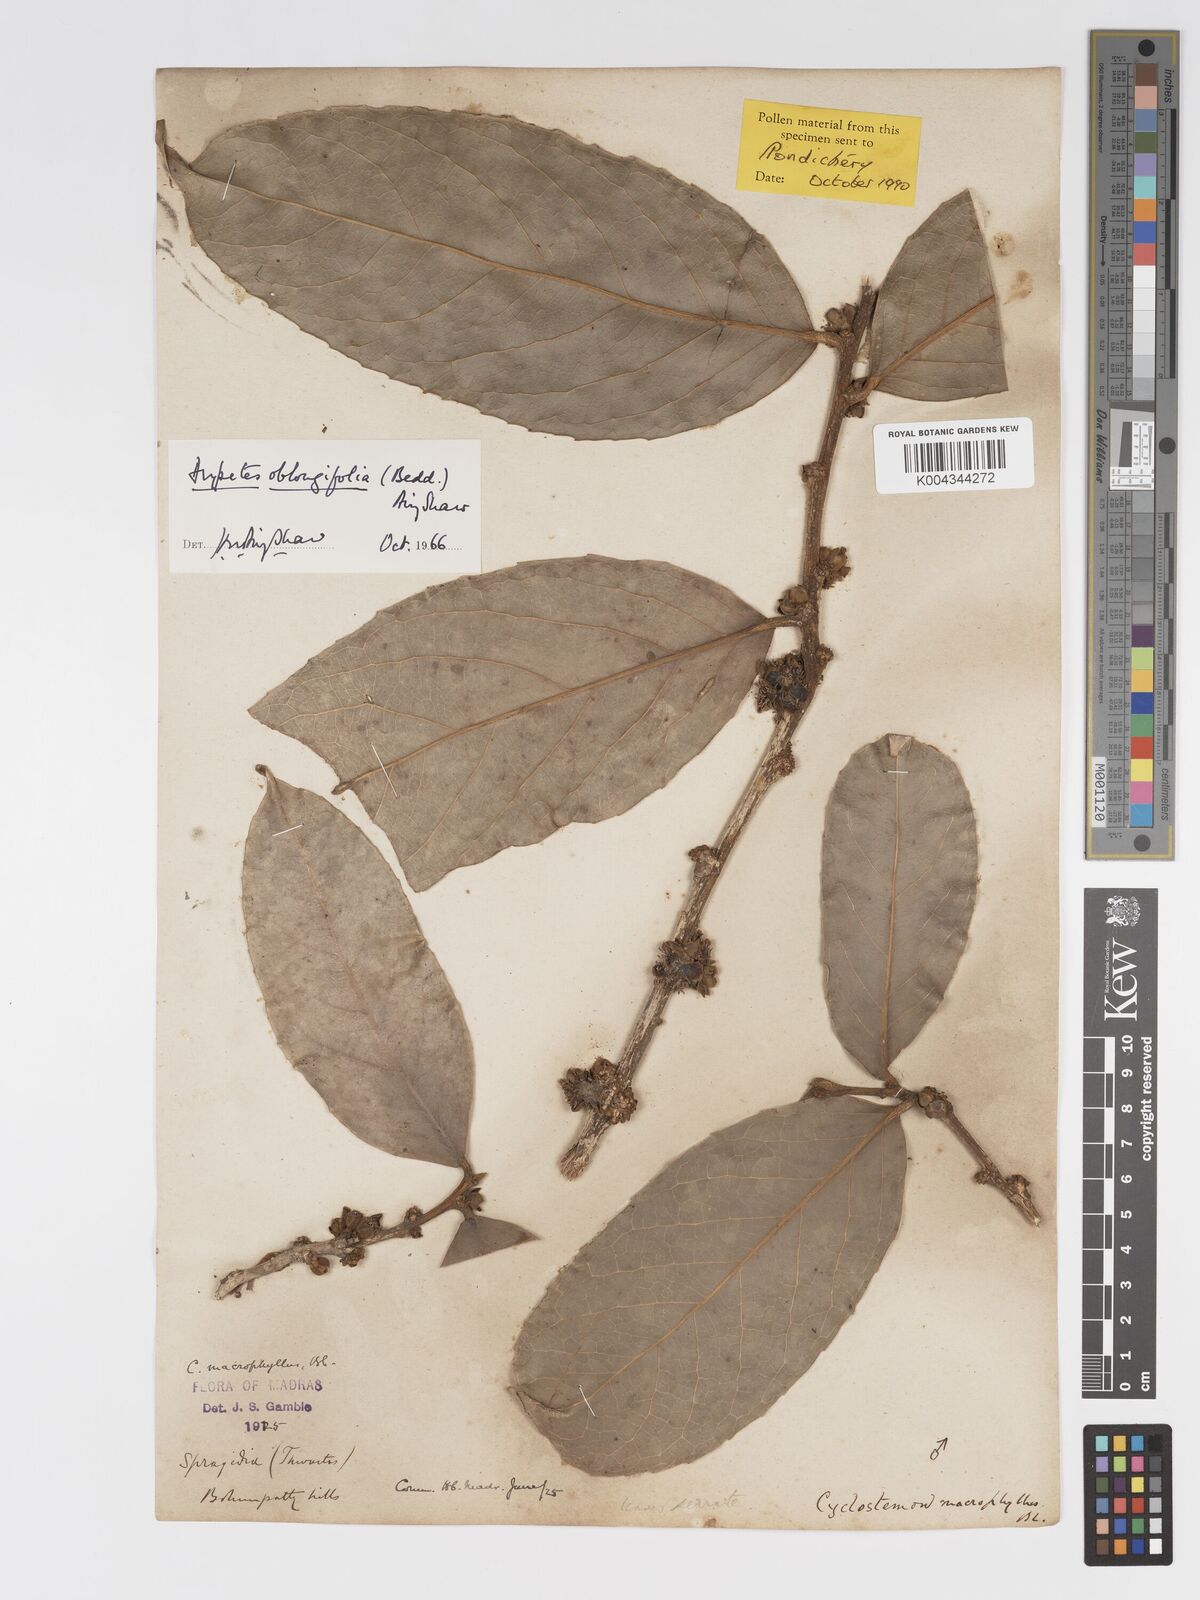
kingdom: Plantae
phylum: Tracheophyta
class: Magnoliopsida
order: Malpighiales
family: Putranjivaceae
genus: Drypetes
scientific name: Drypetes oblongifolia
